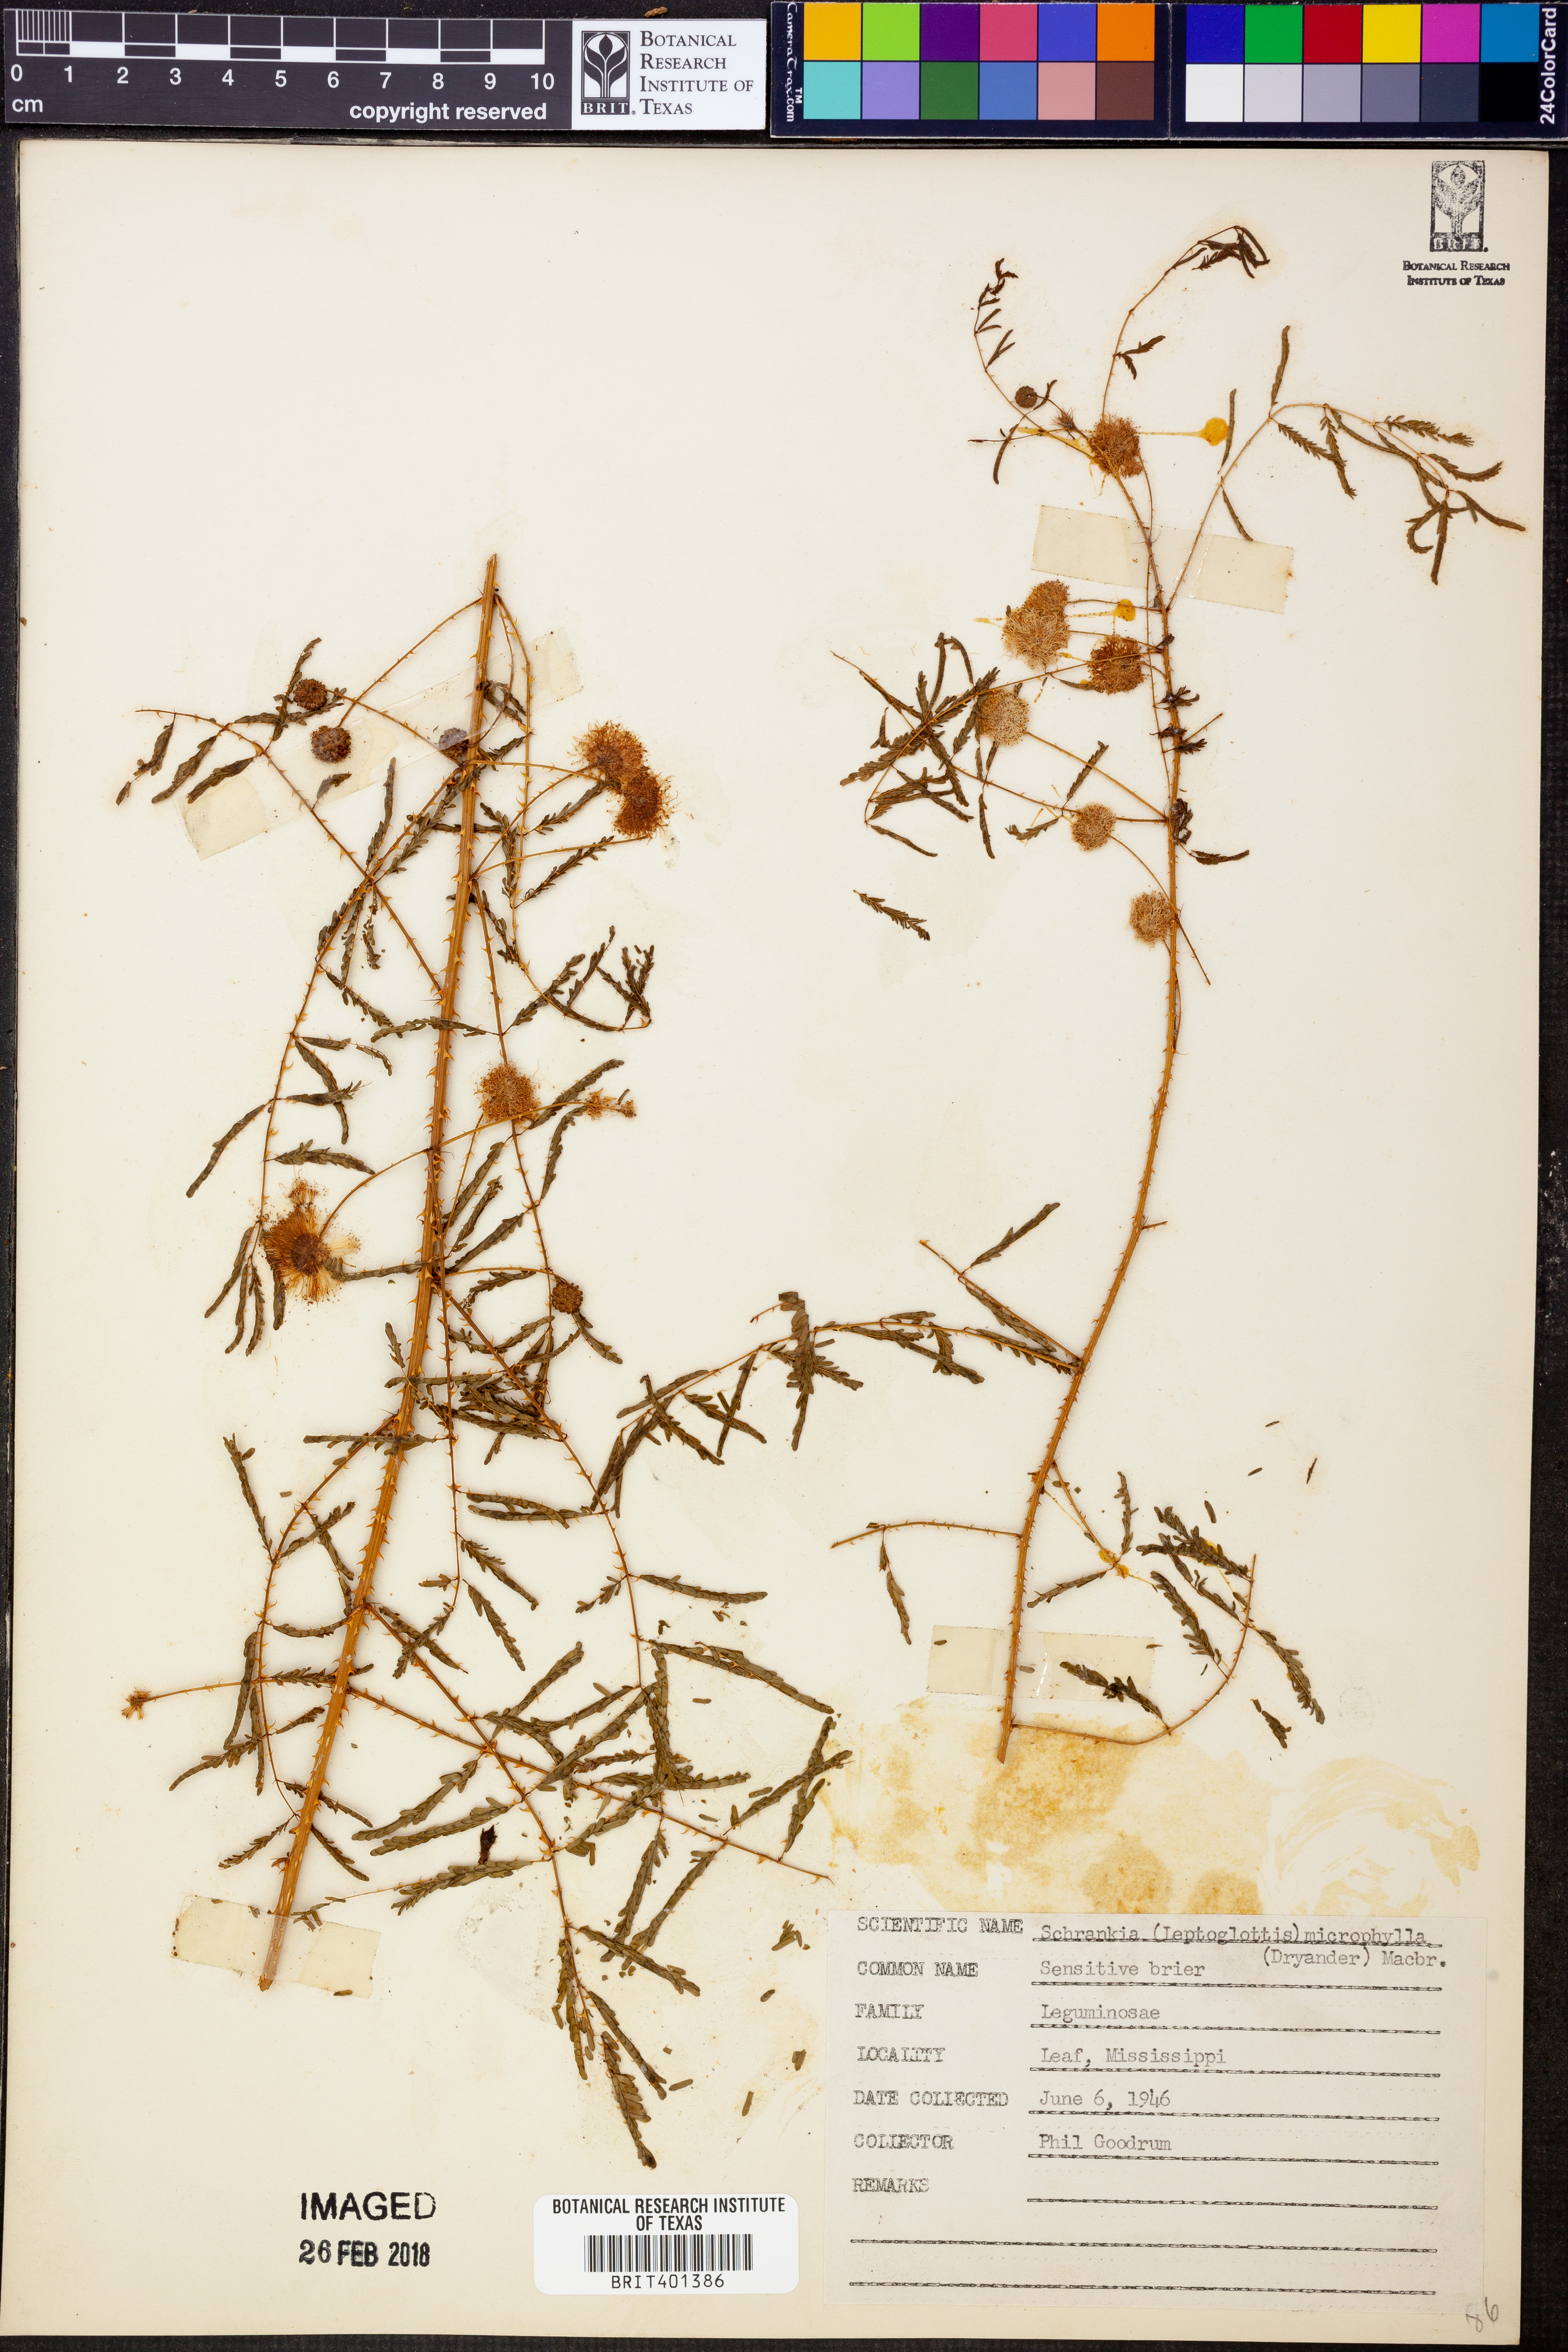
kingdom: Plantae
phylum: Tracheophyta
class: Magnoliopsida
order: Fabales
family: Fabaceae
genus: Mimosa
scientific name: Mimosa quadrivalvis
